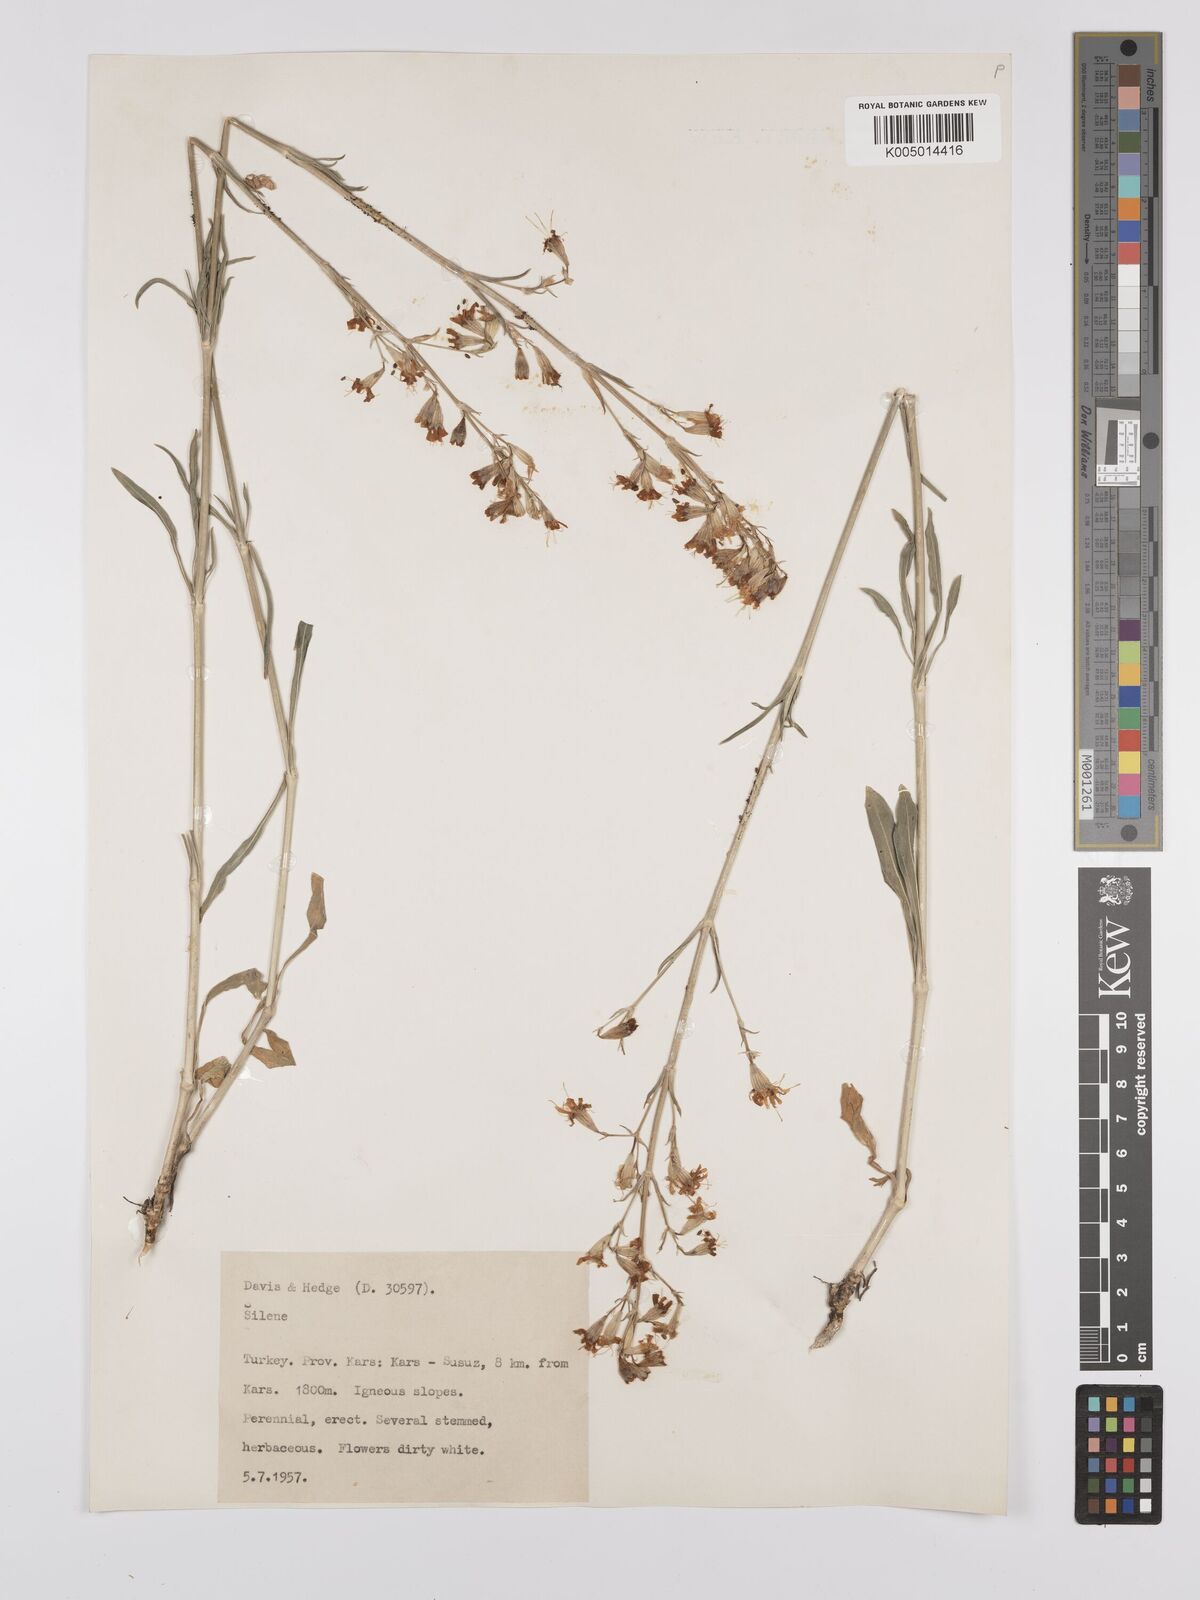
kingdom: Plantae
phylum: Tracheophyta
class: Magnoliopsida
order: Caryophyllales
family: Caryophyllaceae
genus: Silene
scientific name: Silene
